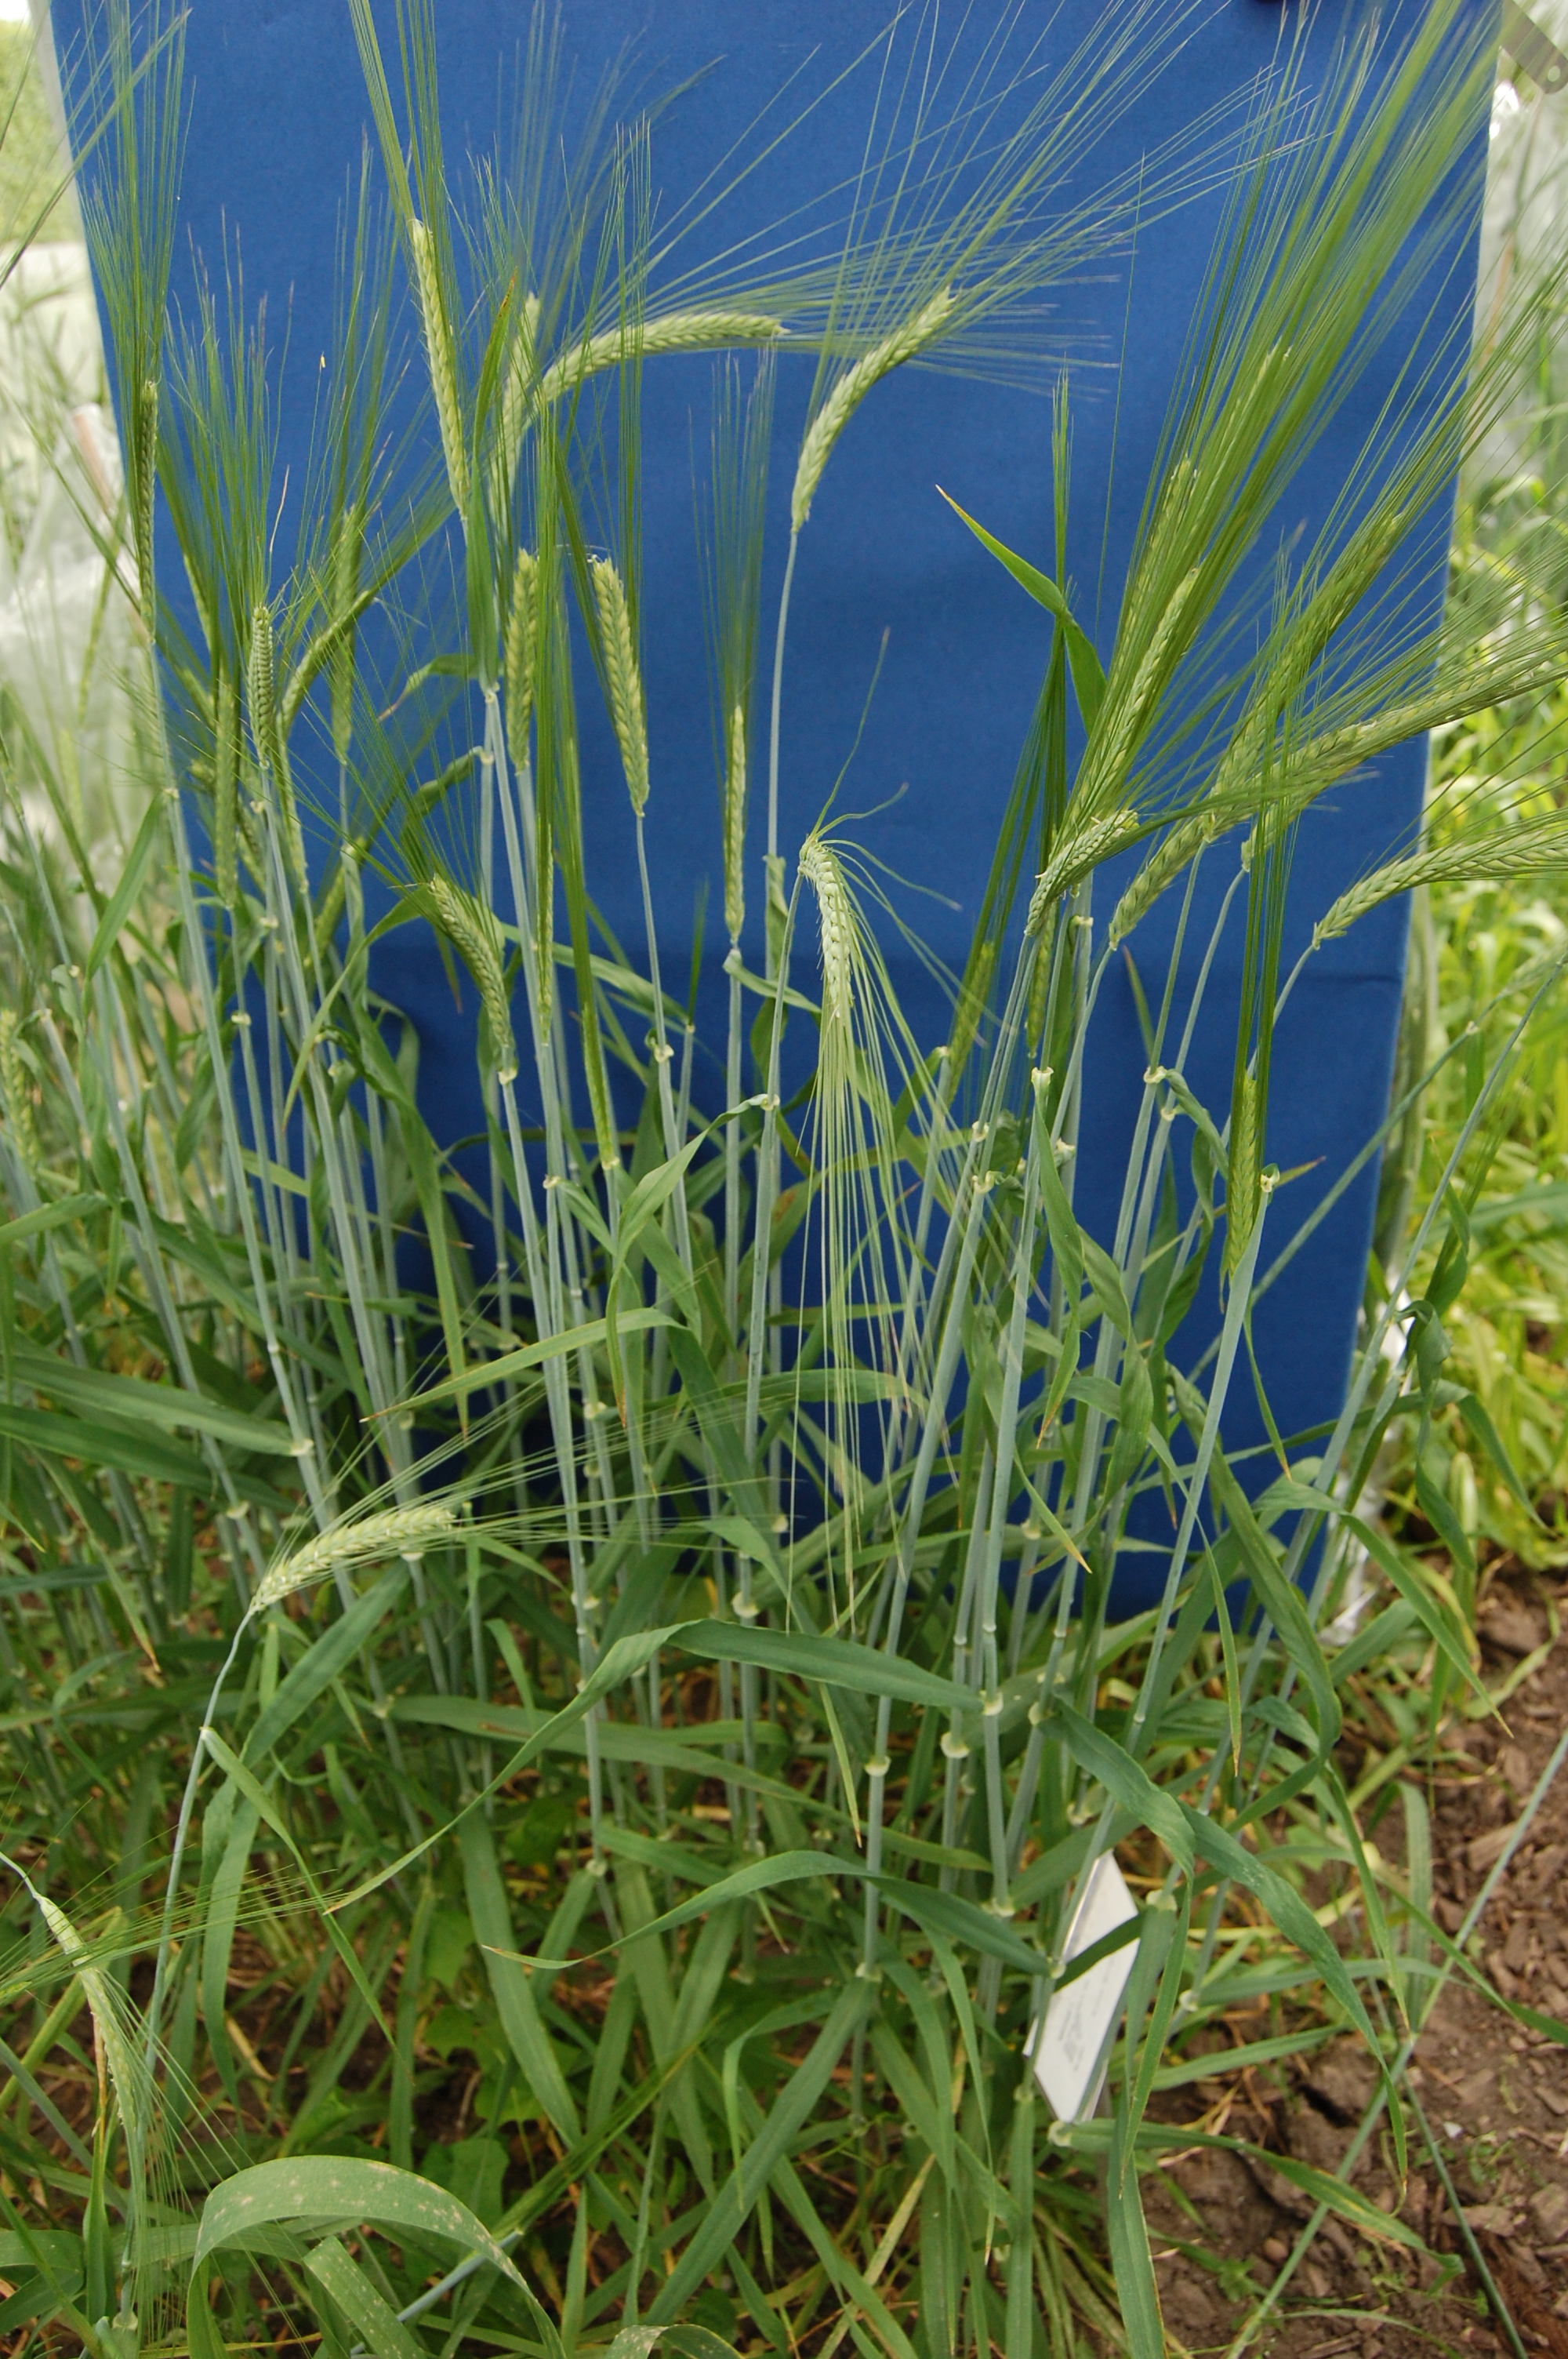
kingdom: Plantae
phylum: Tracheophyta
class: Liliopsida
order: Poales
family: Poaceae
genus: Hordeum
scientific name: Hordeum vulgare
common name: Common barley
